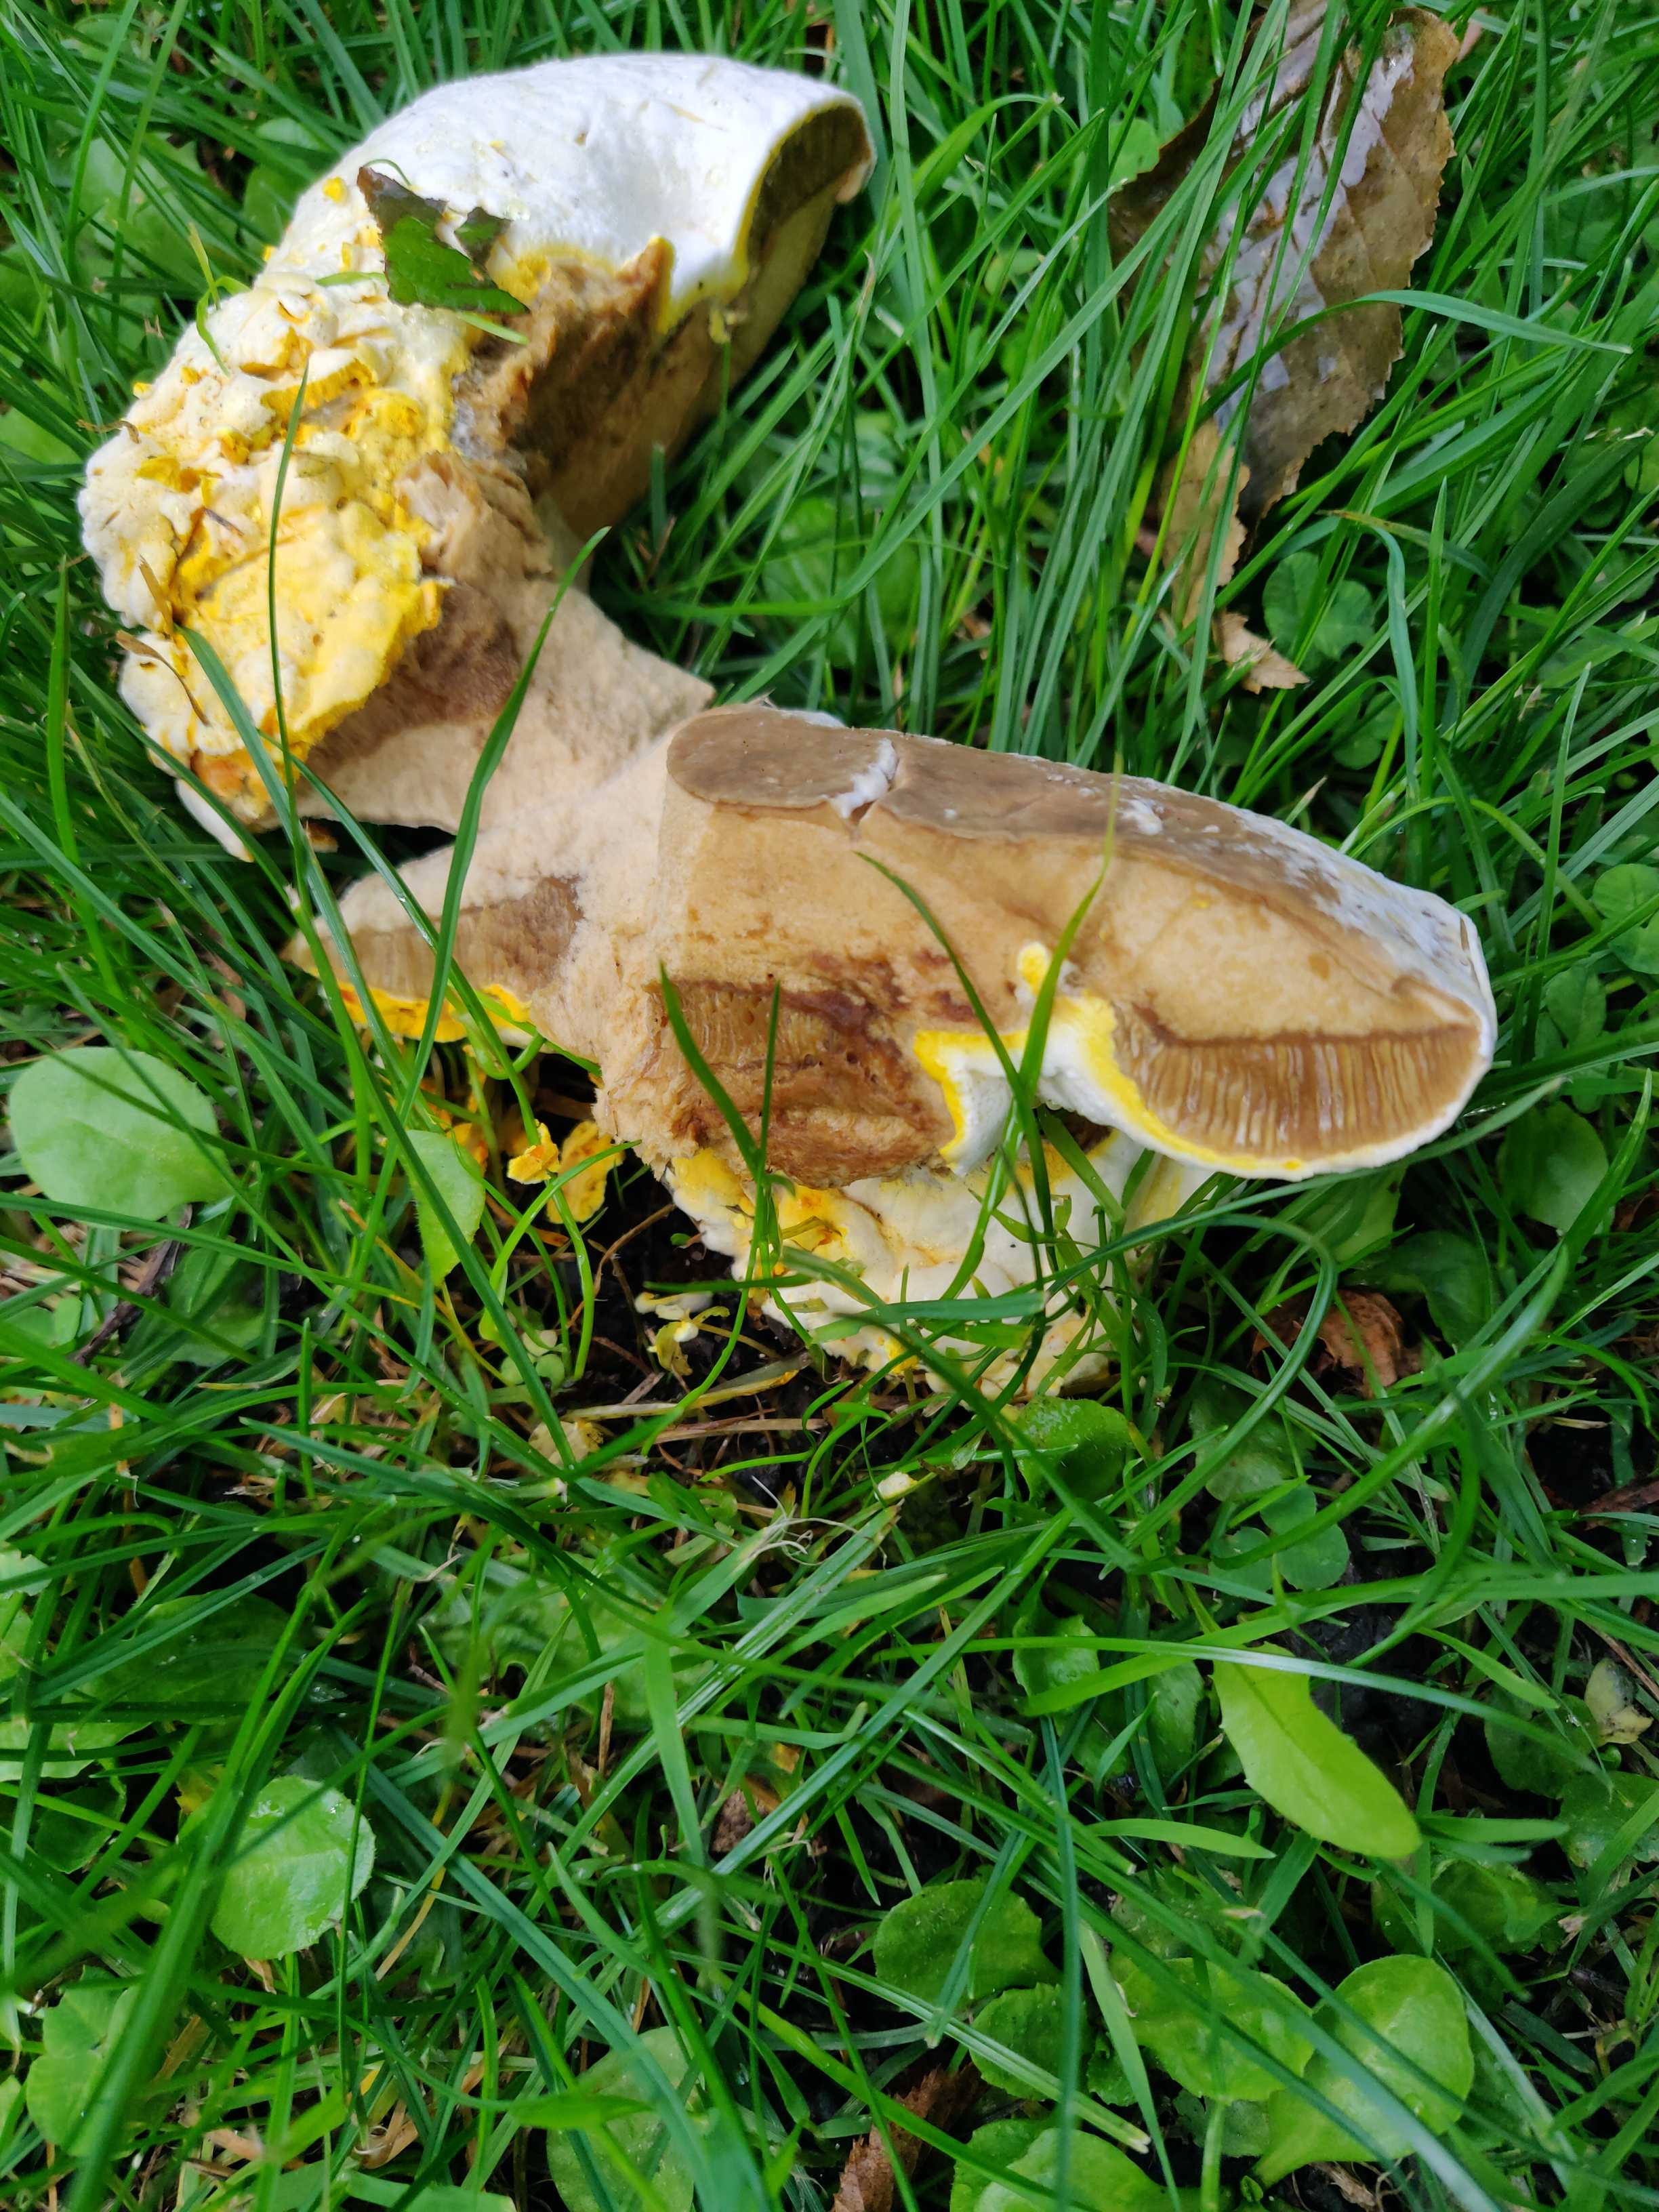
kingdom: Fungi
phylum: Ascomycota
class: Sordariomycetes
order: Hypocreales
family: Hypocreaceae
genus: Hypomyces
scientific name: Hypomyces microspermus
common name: dværgrørhat-snylteskorpe
